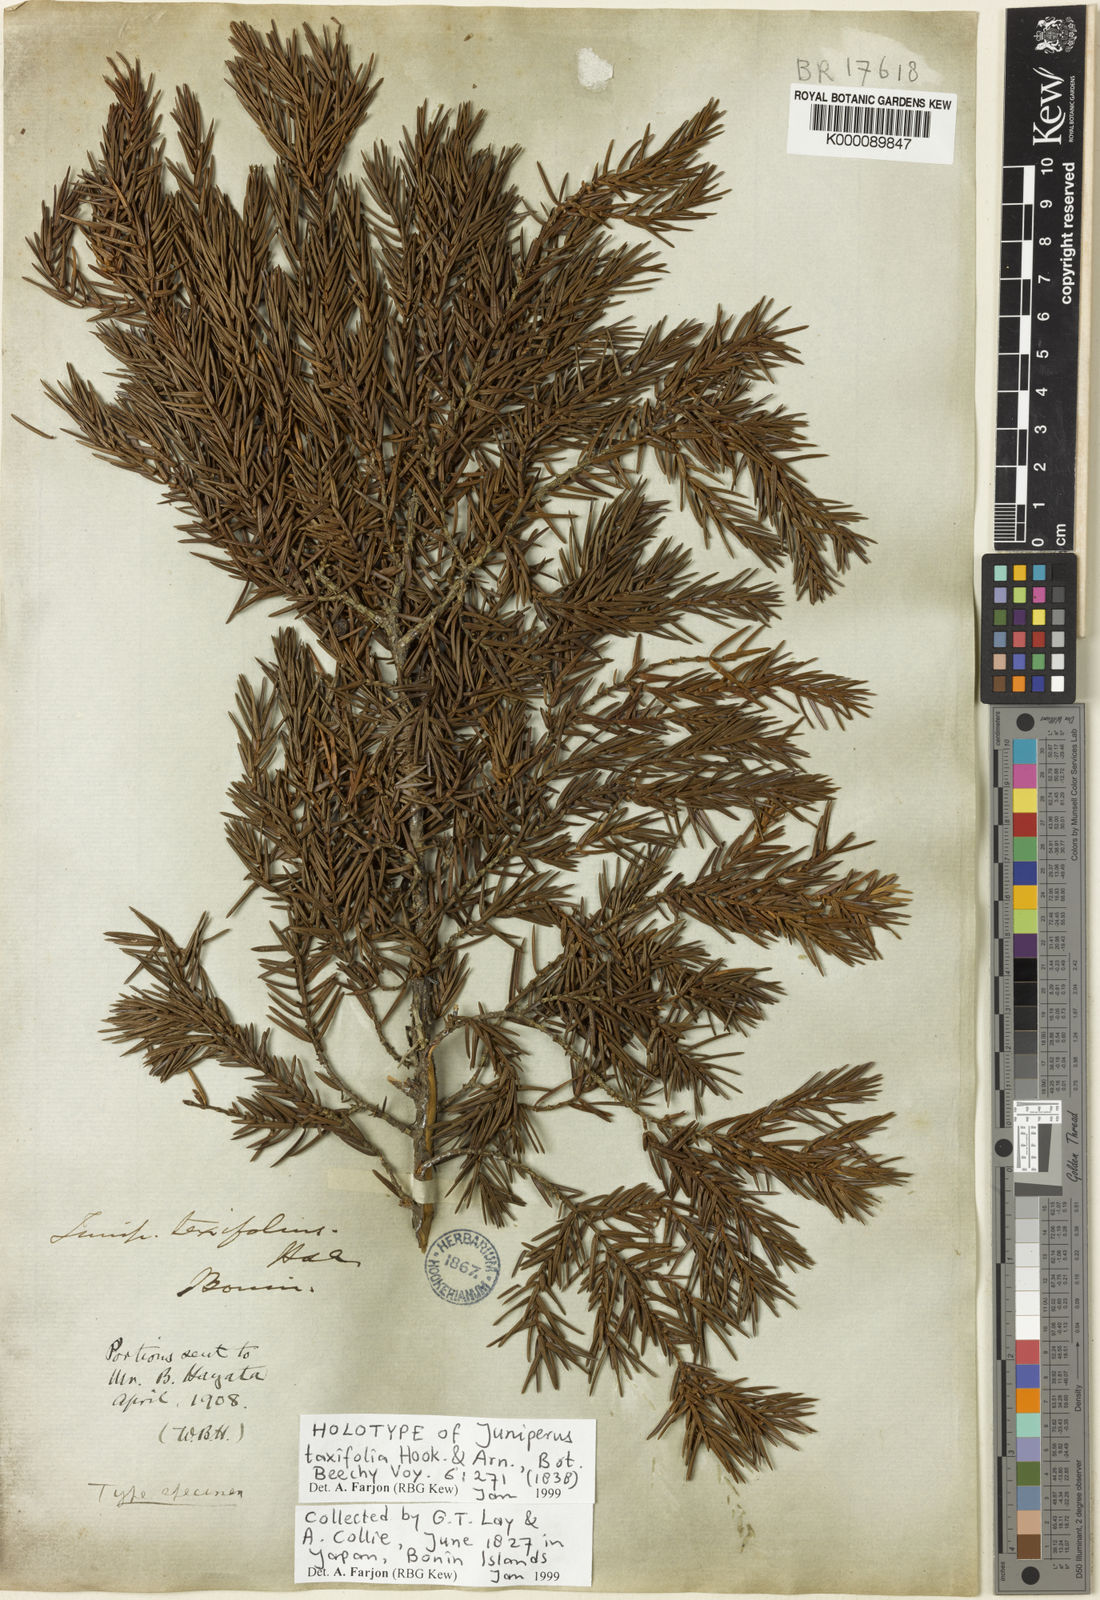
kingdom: Plantae
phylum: Tracheophyta
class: Pinopsida
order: Pinales
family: Cupressaceae
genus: Juniperus
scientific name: Juniperus taxifolia
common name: Fitcheisi
